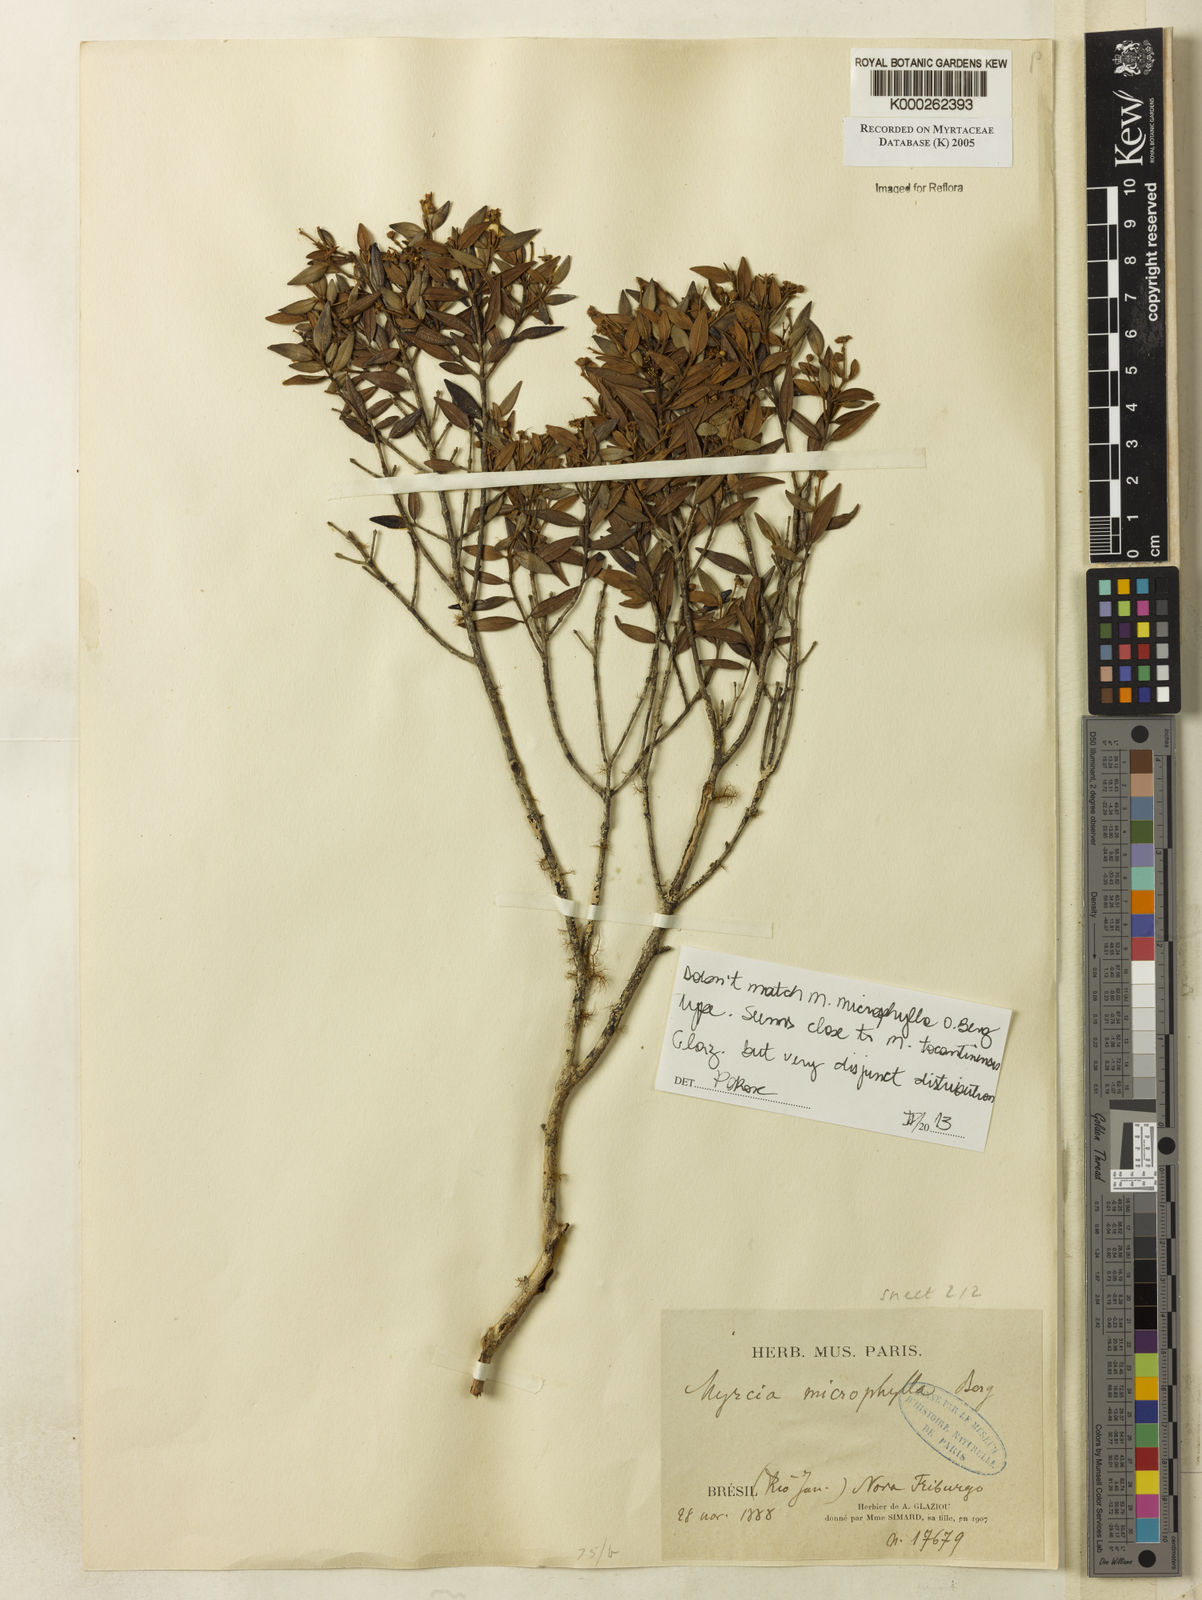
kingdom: Plantae
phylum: Tracheophyta
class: Magnoliopsida
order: Myrtales
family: Myrtaceae
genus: Myrcia
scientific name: Myrcia microphylla
